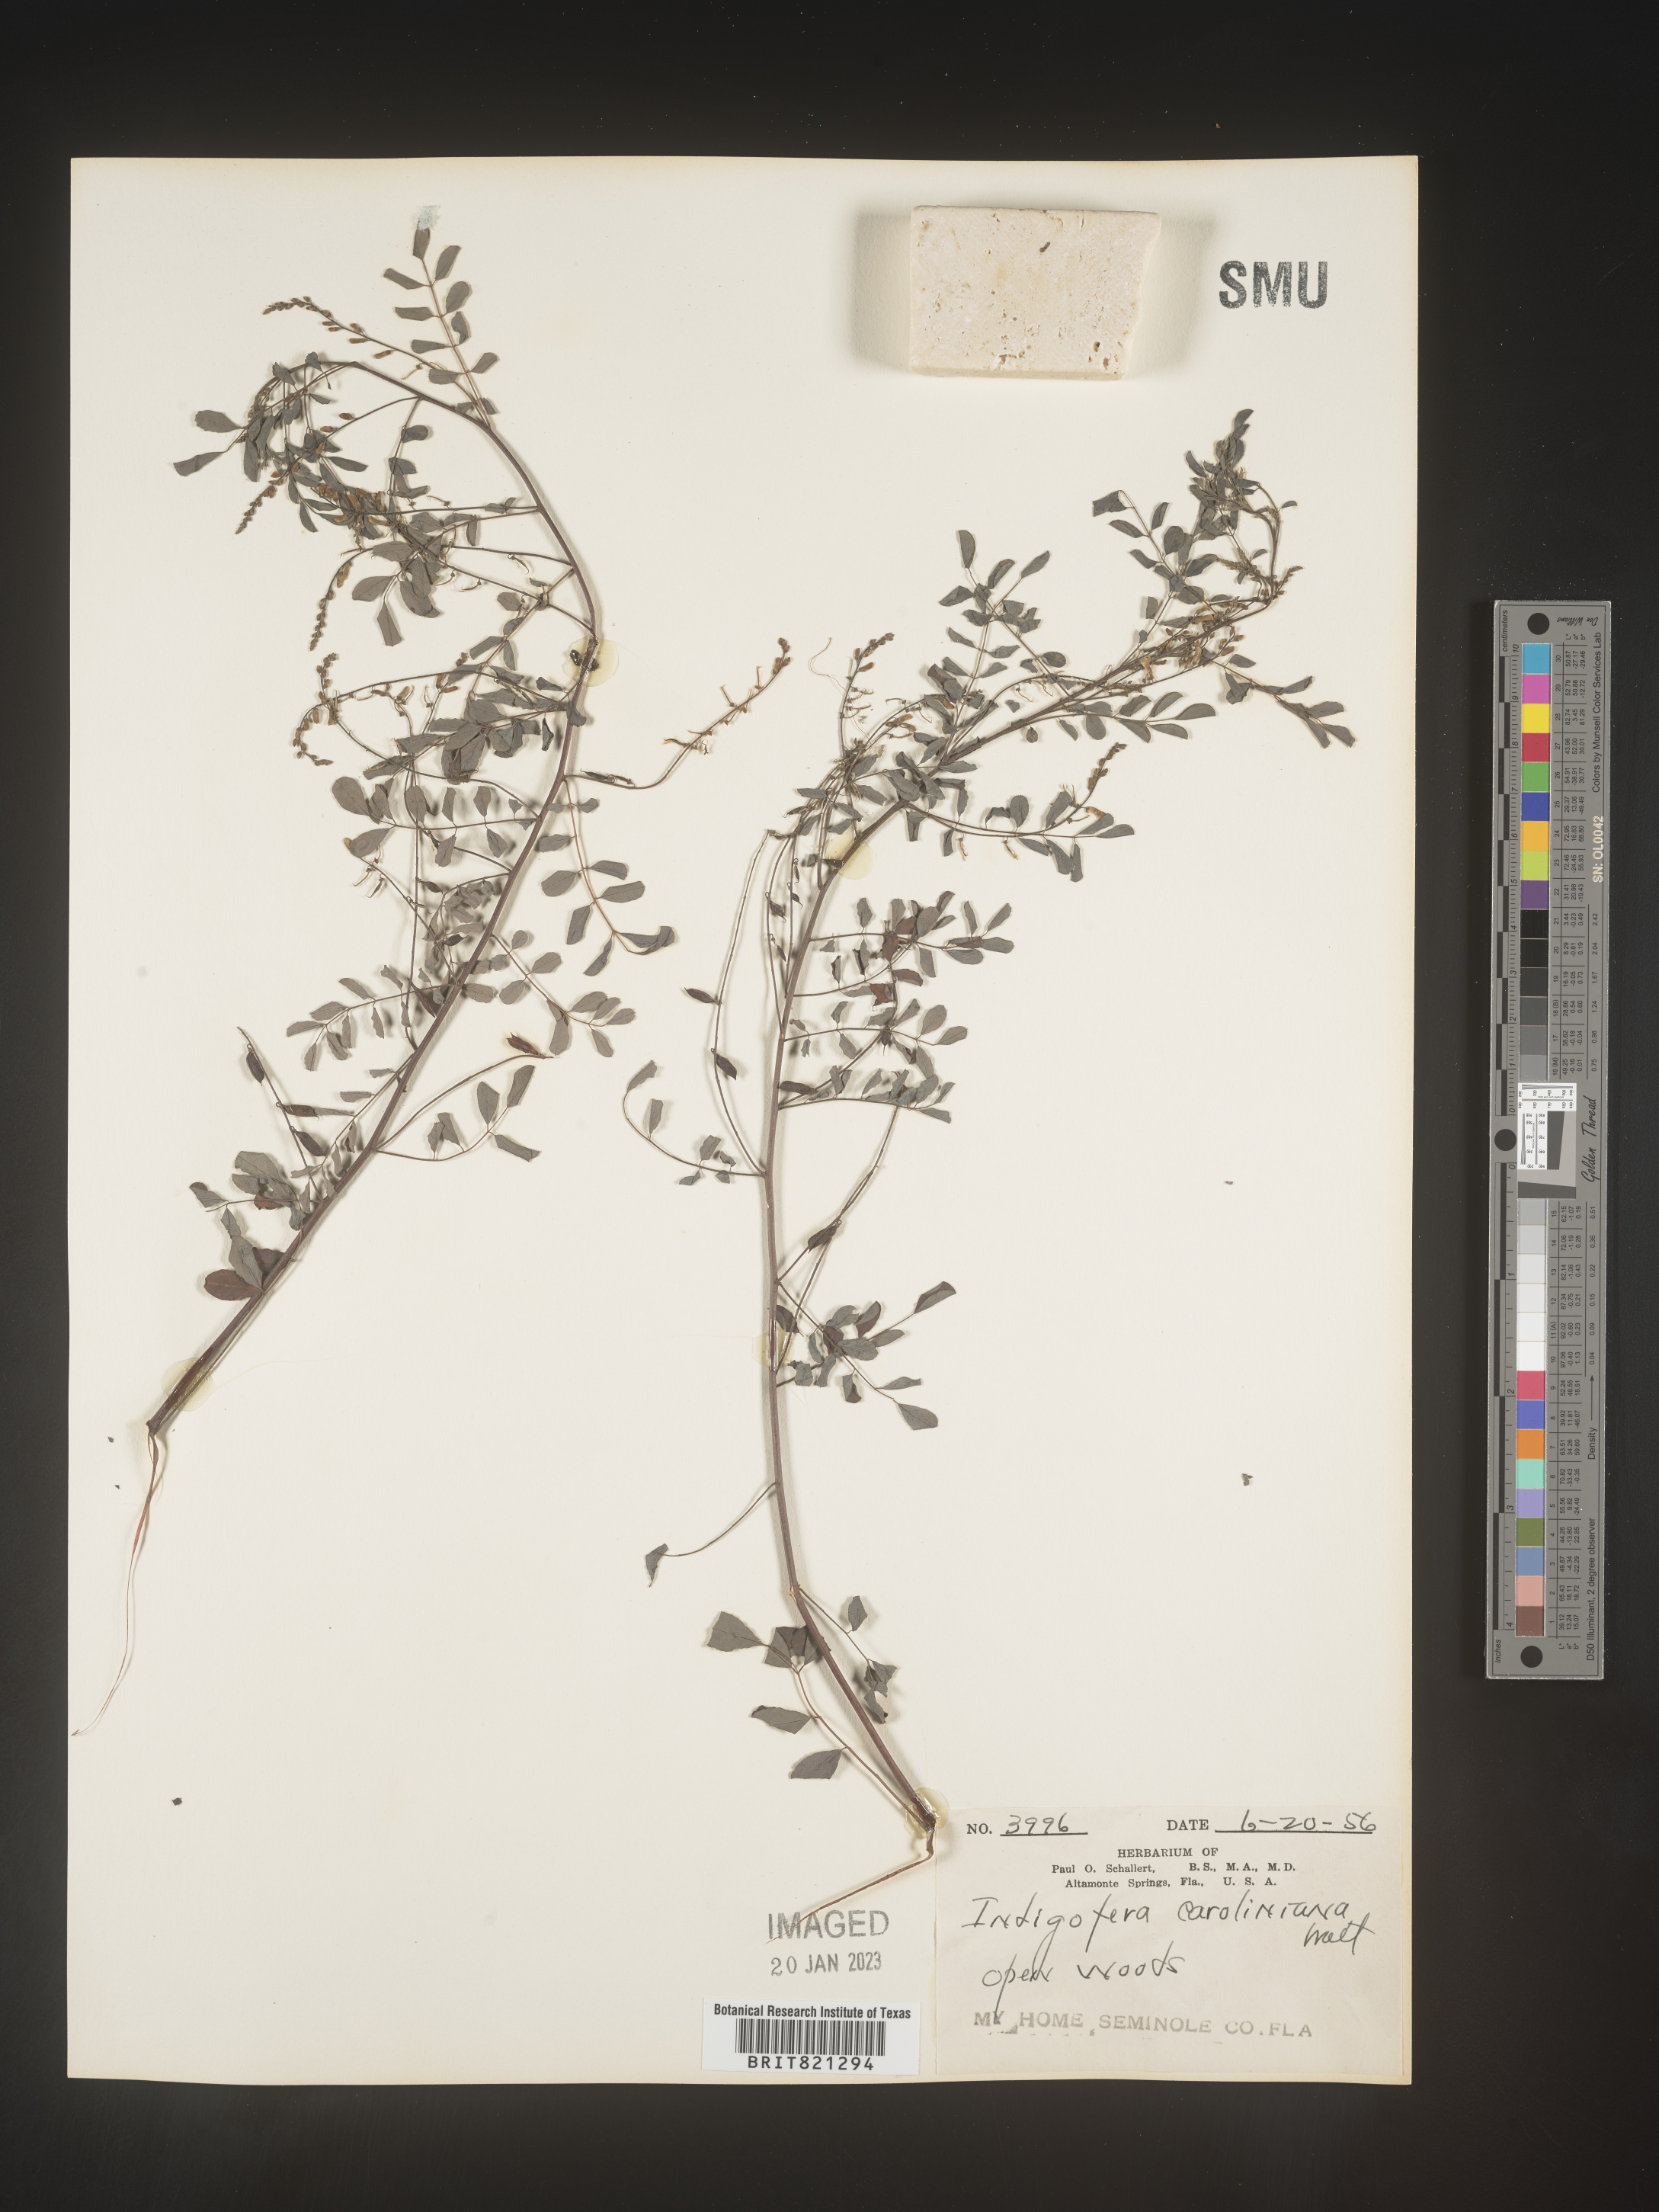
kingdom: Plantae
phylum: Tracheophyta
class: Magnoliopsida
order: Fabales
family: Fabaceae
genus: Indigofera
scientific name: Indigofera
